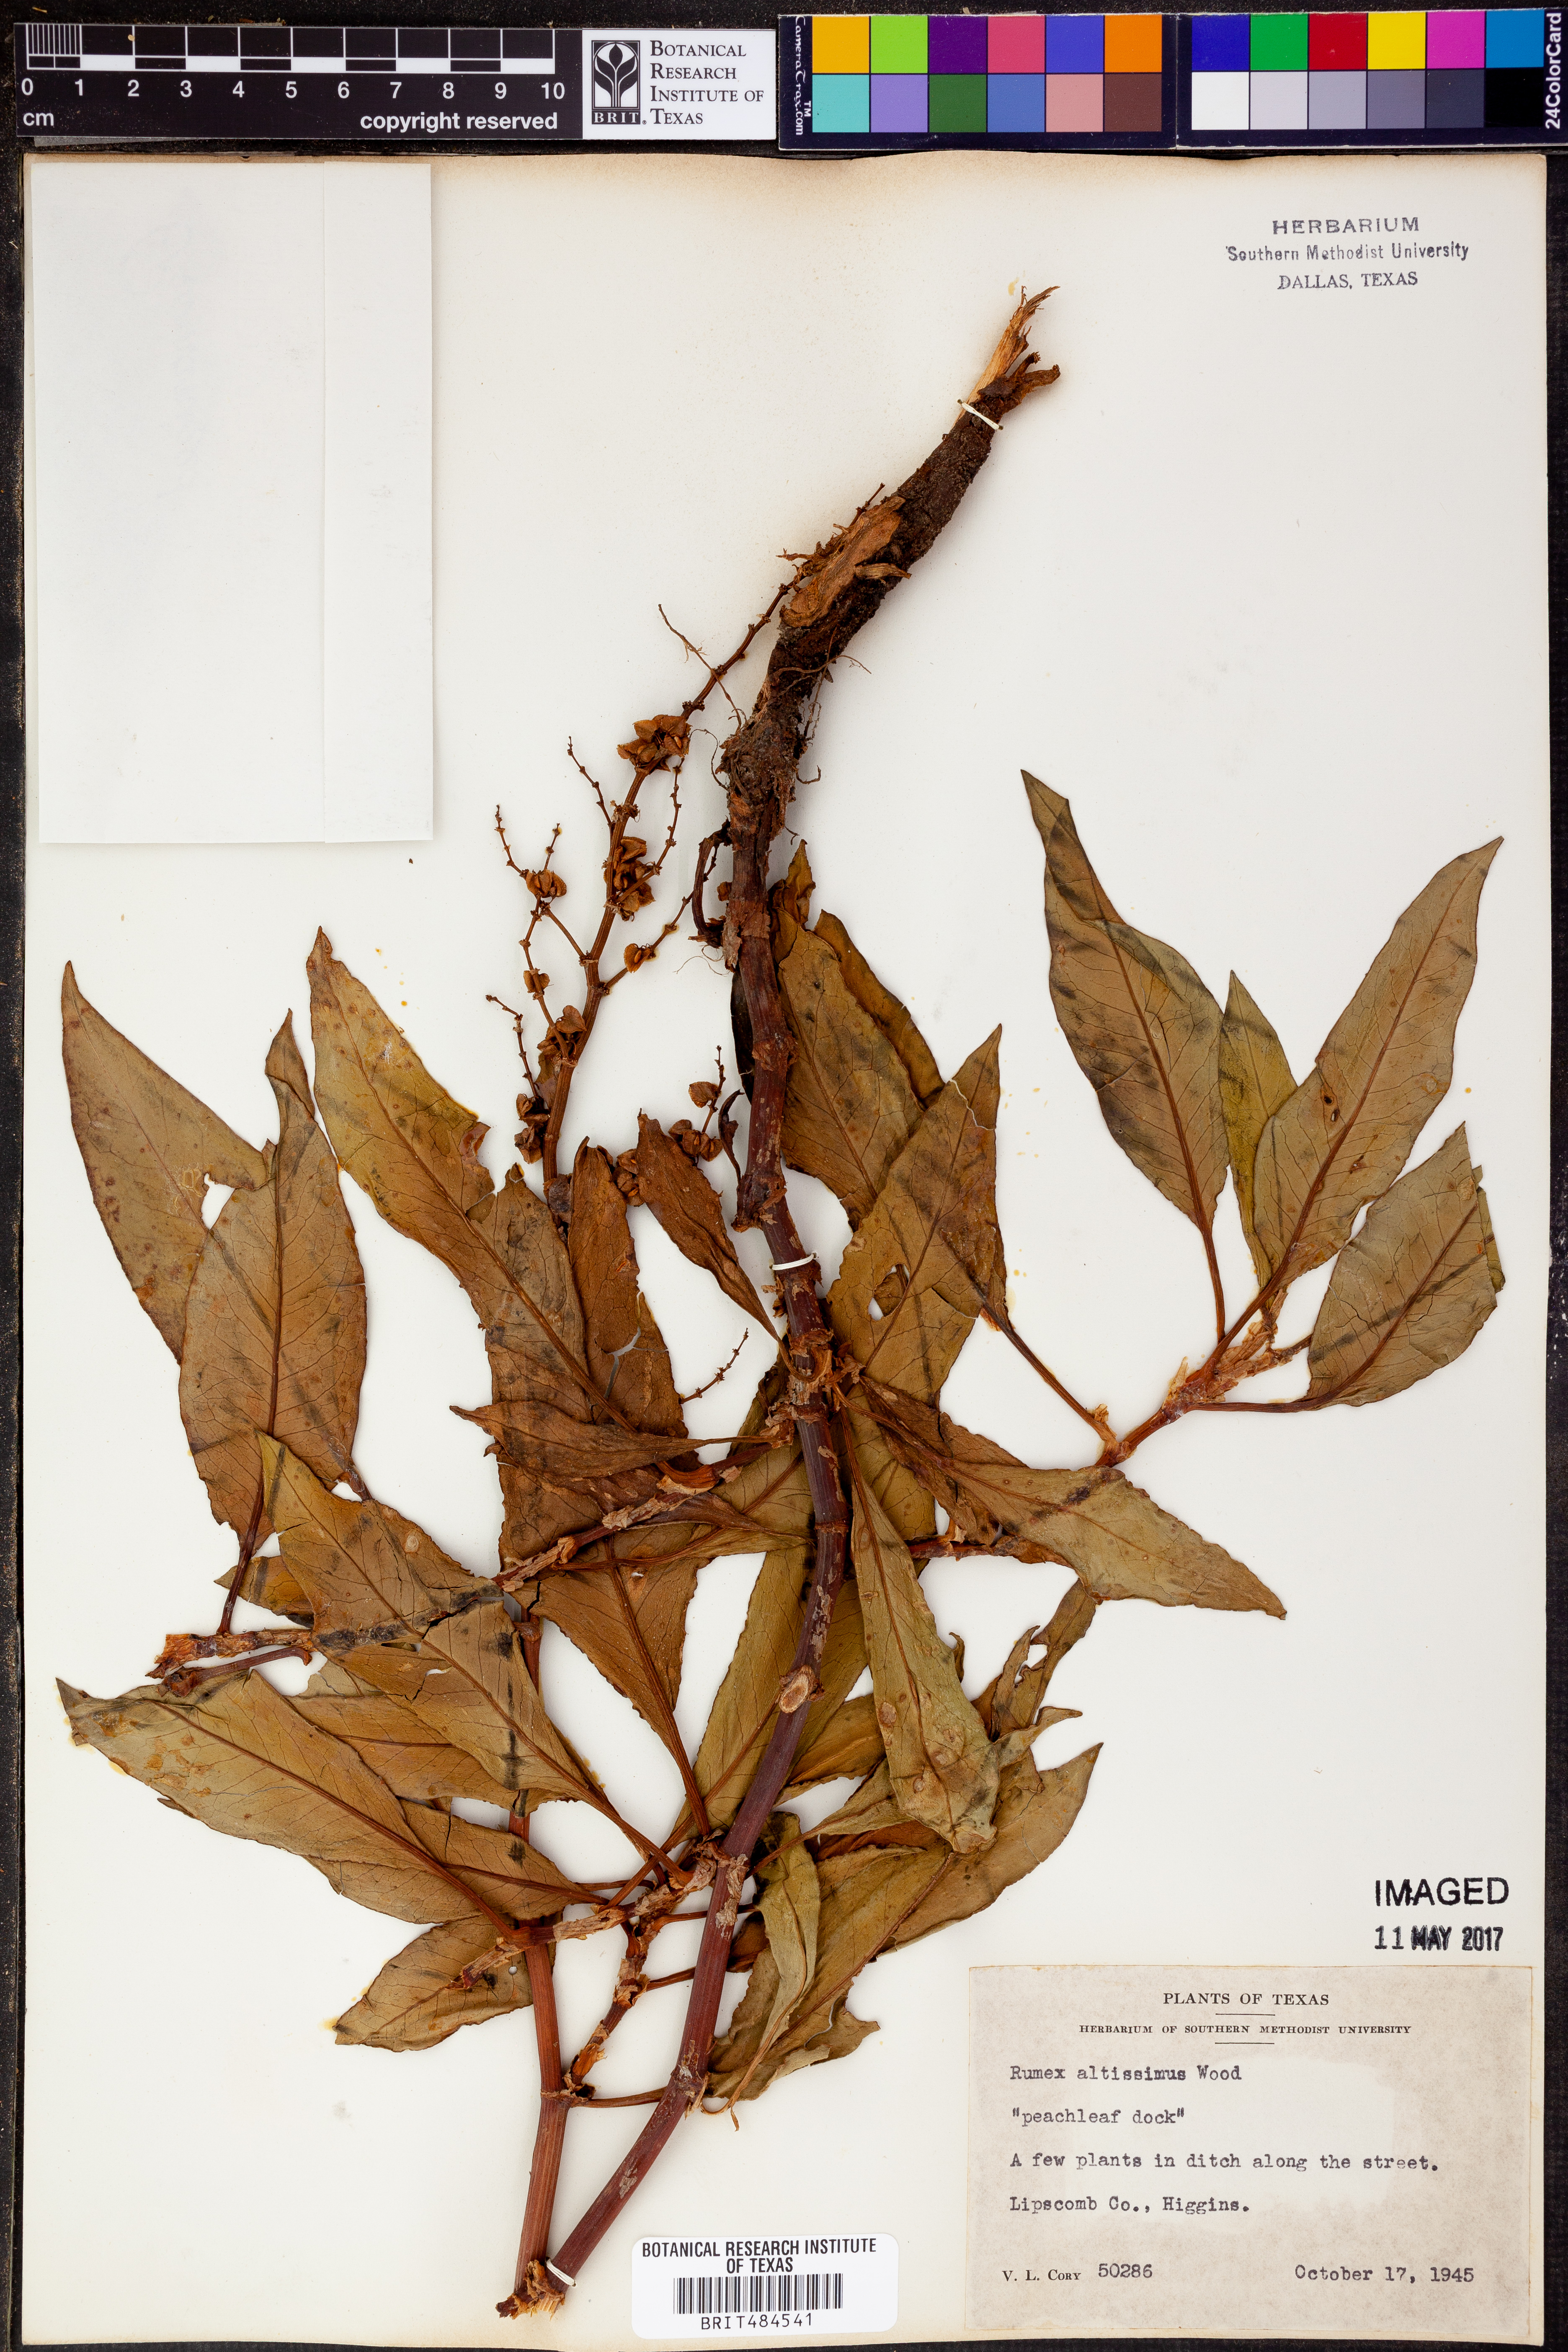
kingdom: Plantae
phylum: Tracheophyta
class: Magnoliopsida
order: Caryophyllales
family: Polygonaceae
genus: Rumex
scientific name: Rumex altissimus
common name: Smooth dock
